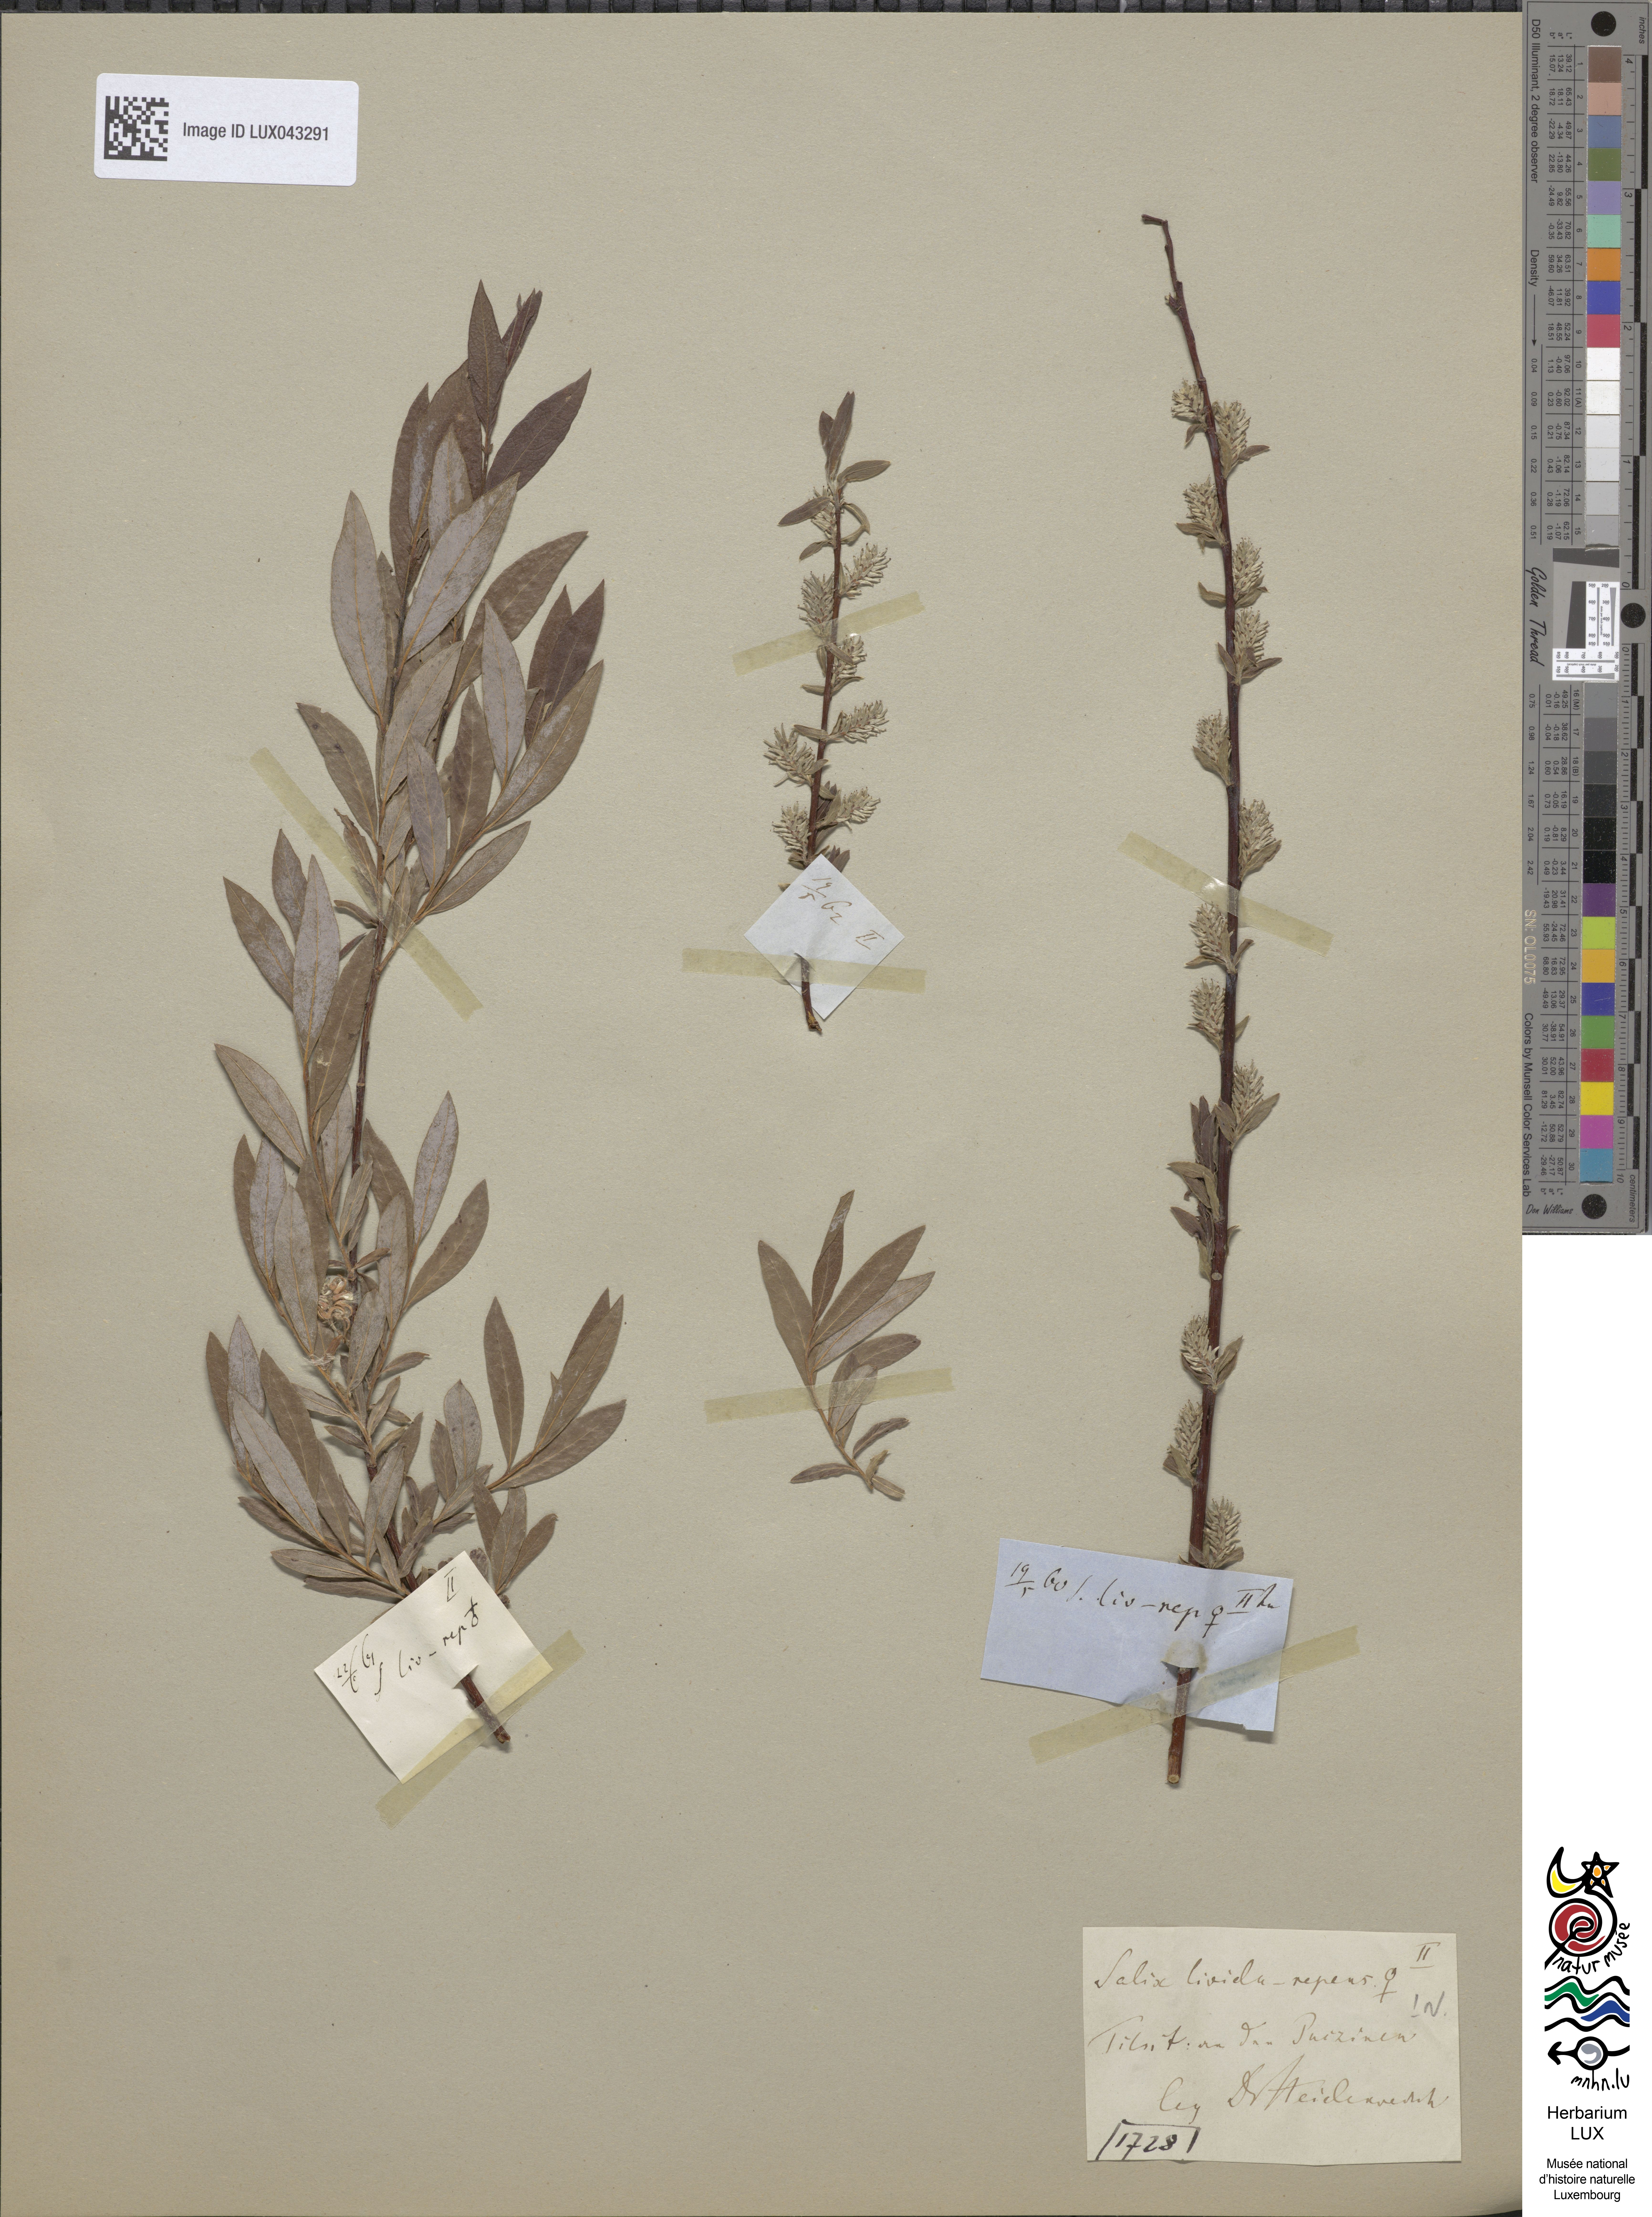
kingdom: Plantae
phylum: Tracheophyta
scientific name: Tracheophyta
